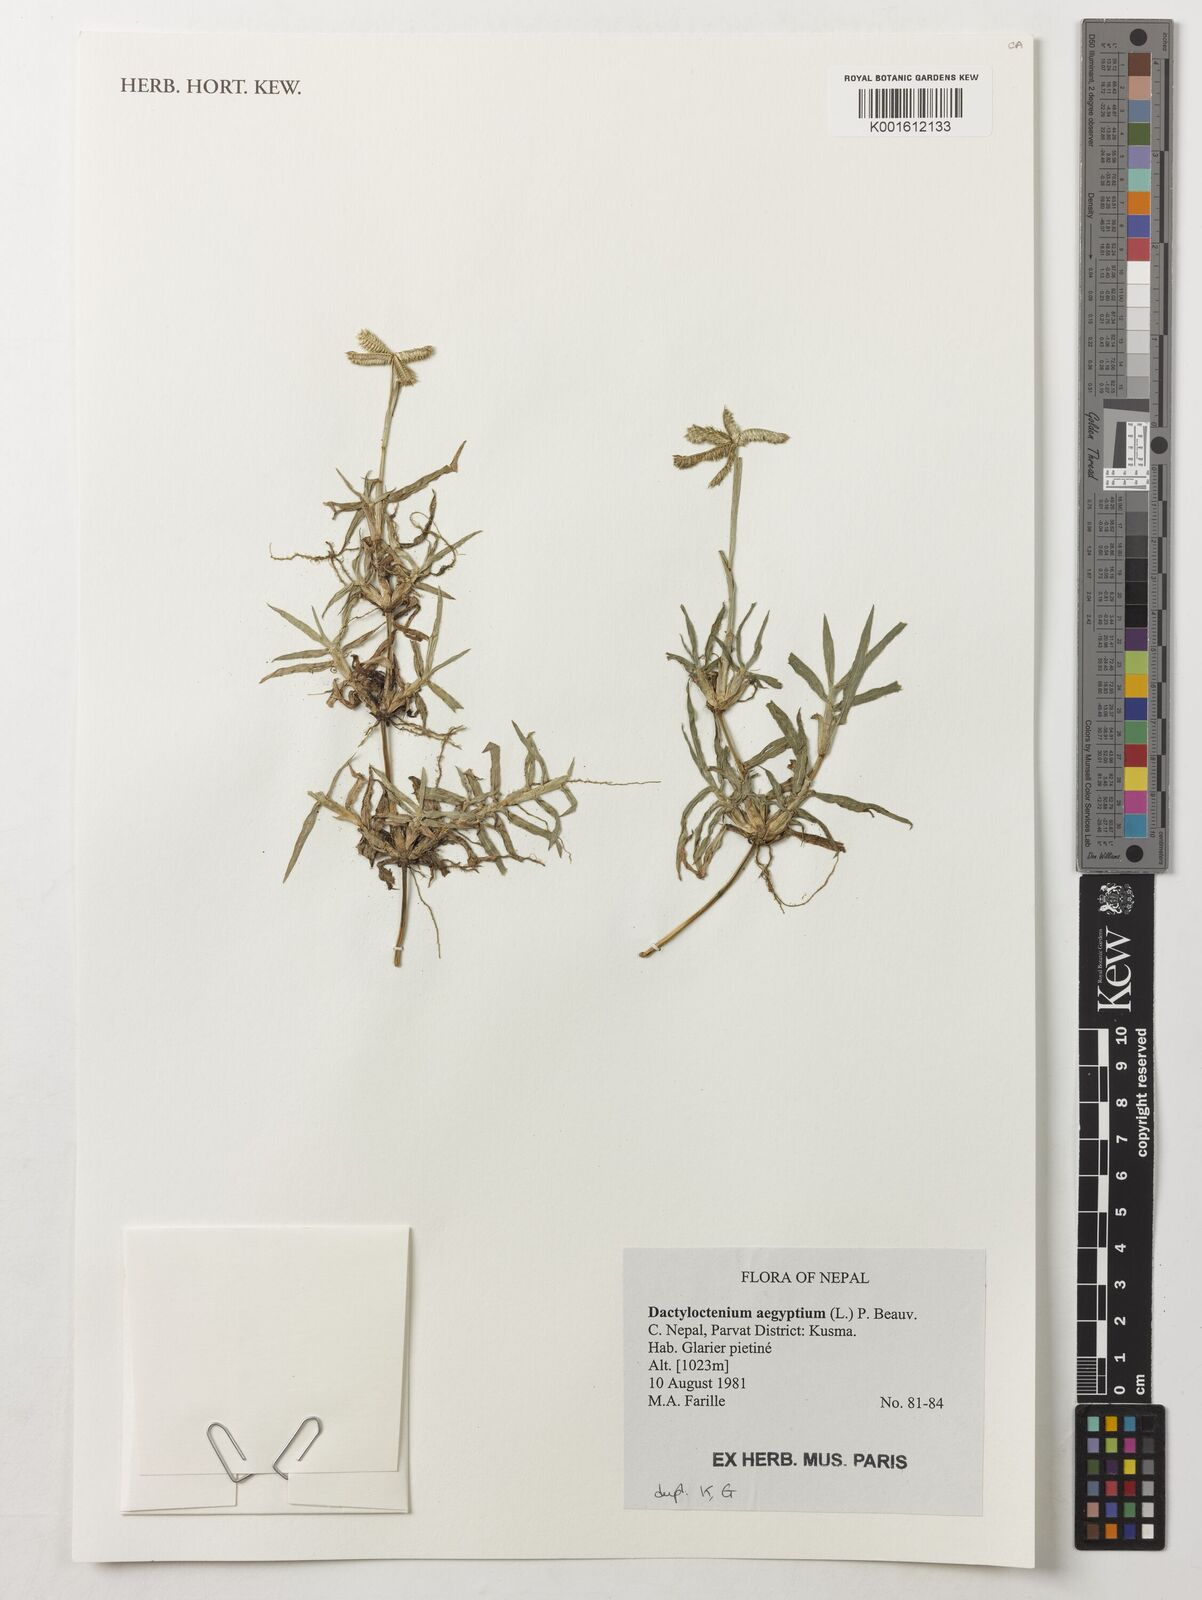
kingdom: Plantae
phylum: Tracheophyta
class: Liliopsida
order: Poales
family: Poaceae
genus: Dactyloctenium
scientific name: Dactyloctenium aegyptium
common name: Egyptian grass
